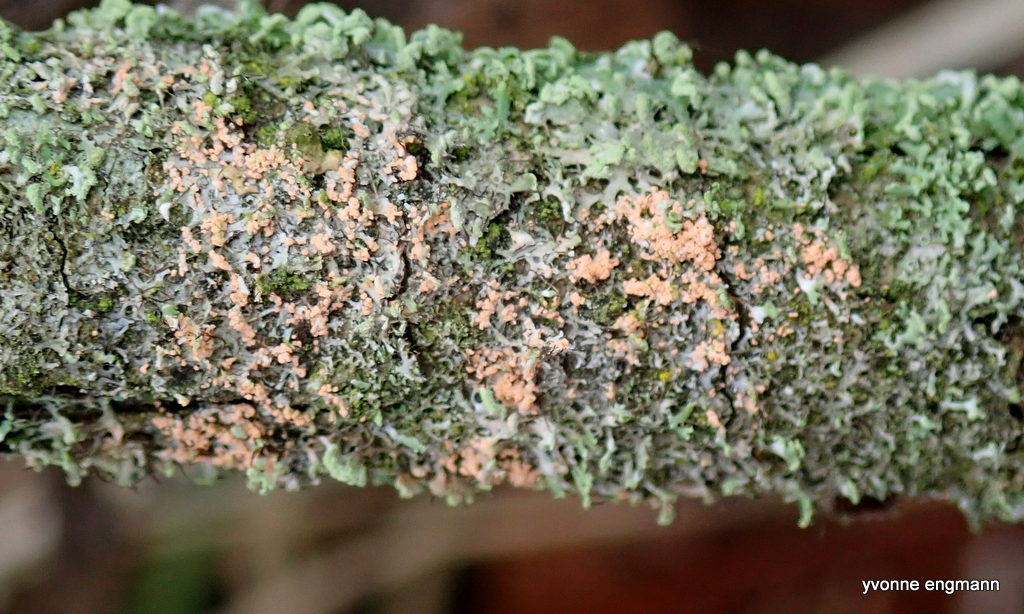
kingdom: Fungi
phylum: Basidiomycota
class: Agaricomycetes
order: Corticiales
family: Corticiaceae
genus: Erythricium
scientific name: Erythricium aurantiacum
